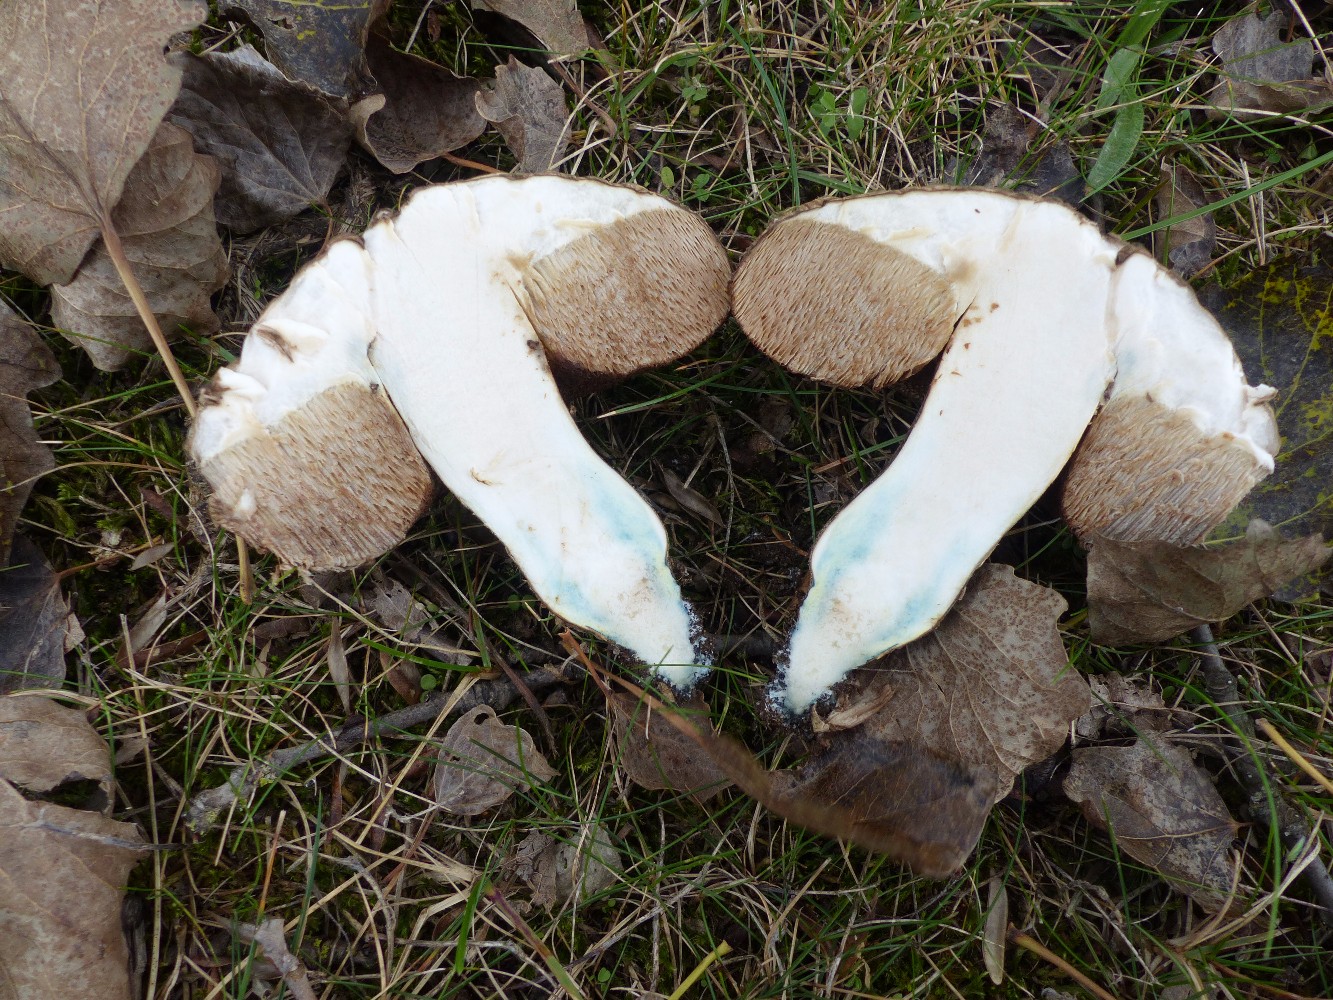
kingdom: Fungi
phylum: Basidiomycota
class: Agaricomycetes
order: Boletales
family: Boletaceae
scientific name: Boletaceae
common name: rørhatfamilien
